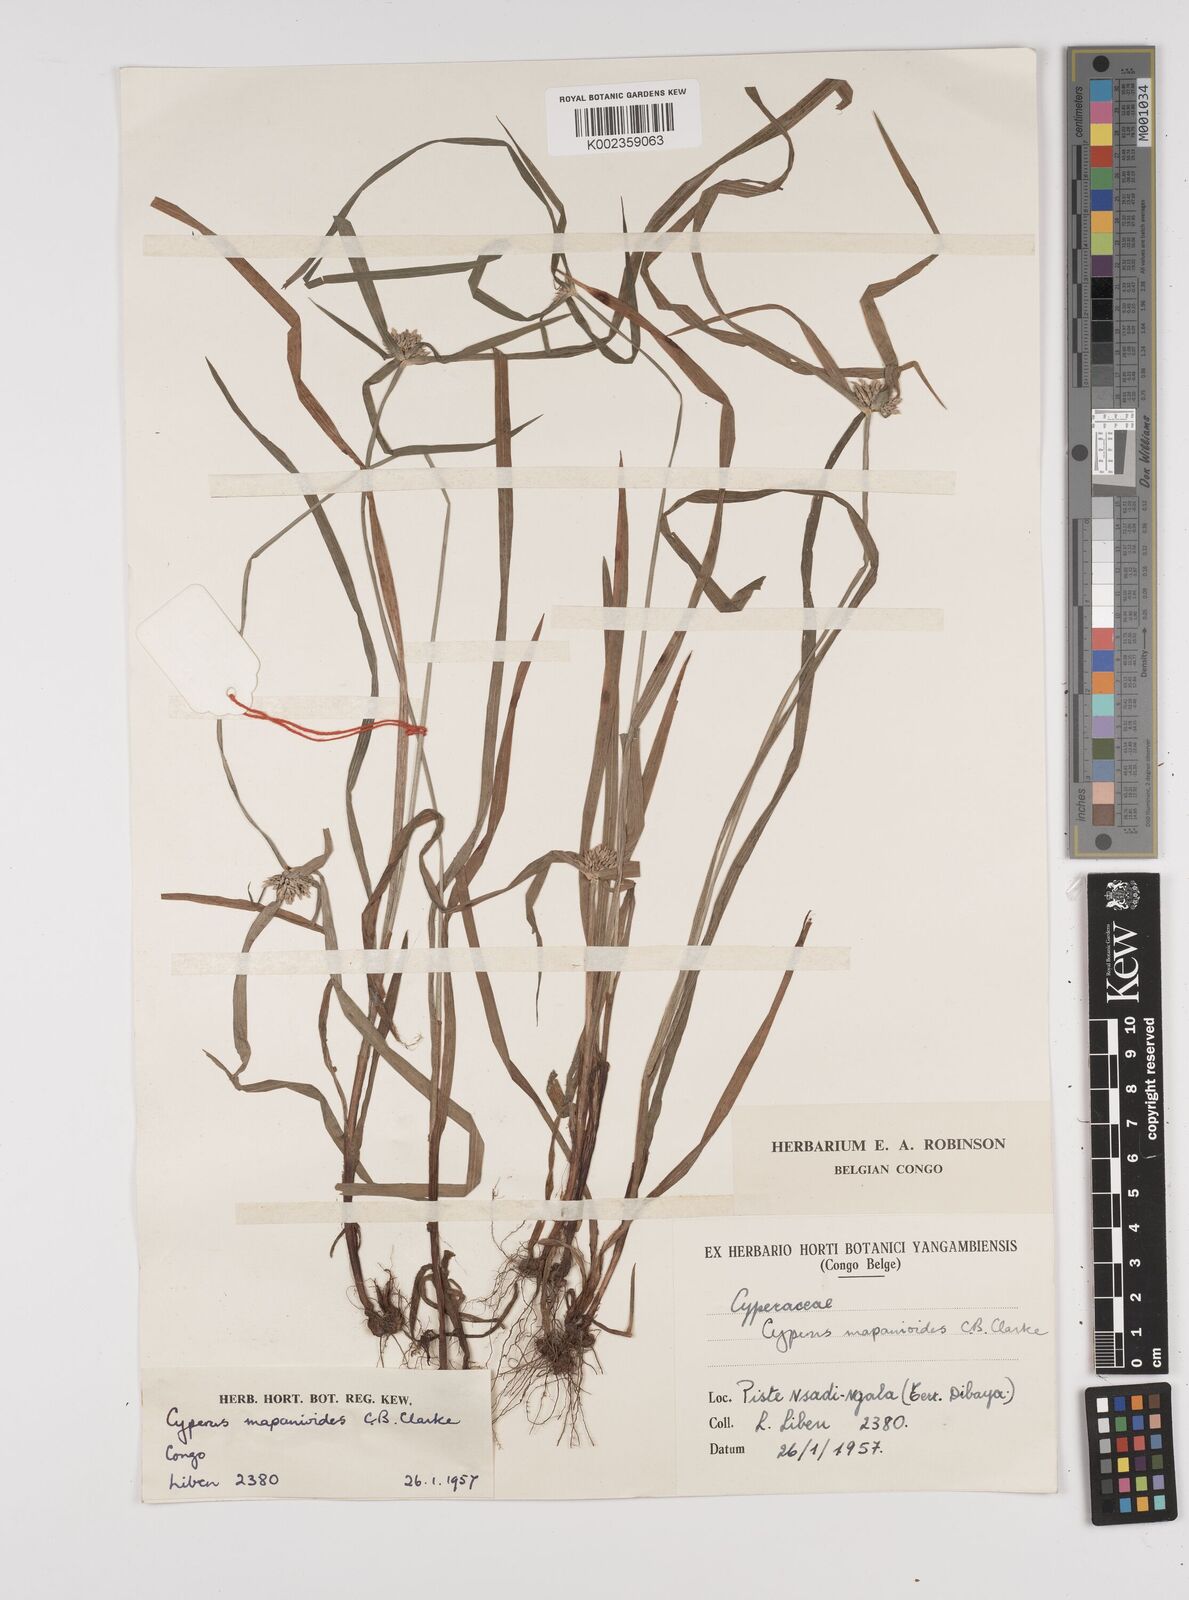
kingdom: Plantae
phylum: Tracheophyta
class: Liliopsida
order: Poales
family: Cyperaceae
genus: Cyperus
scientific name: Cyperus mapanioides
